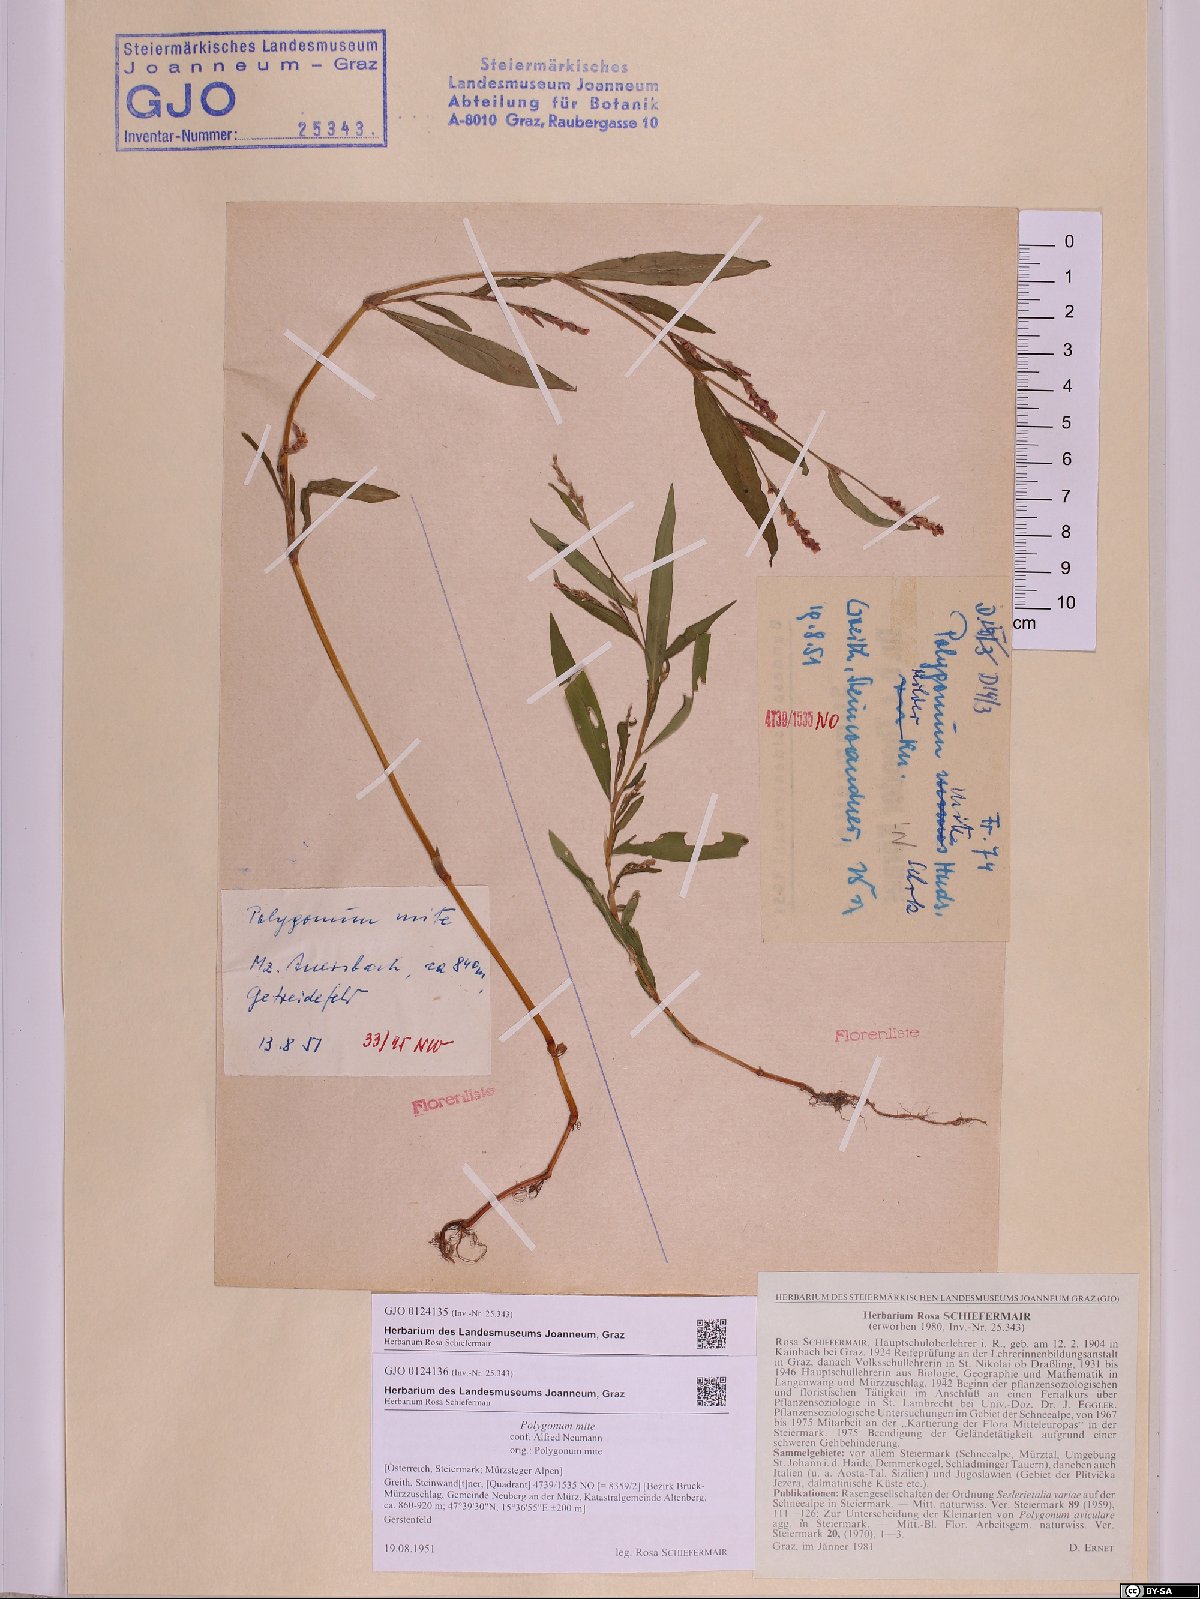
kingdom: Plantae
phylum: Tracheophyta
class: Magnoliopsida
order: Caryophyllales
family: Polygonaceae
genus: Persicaria
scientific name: Persicaria mitis
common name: Tasteless water-pepper
